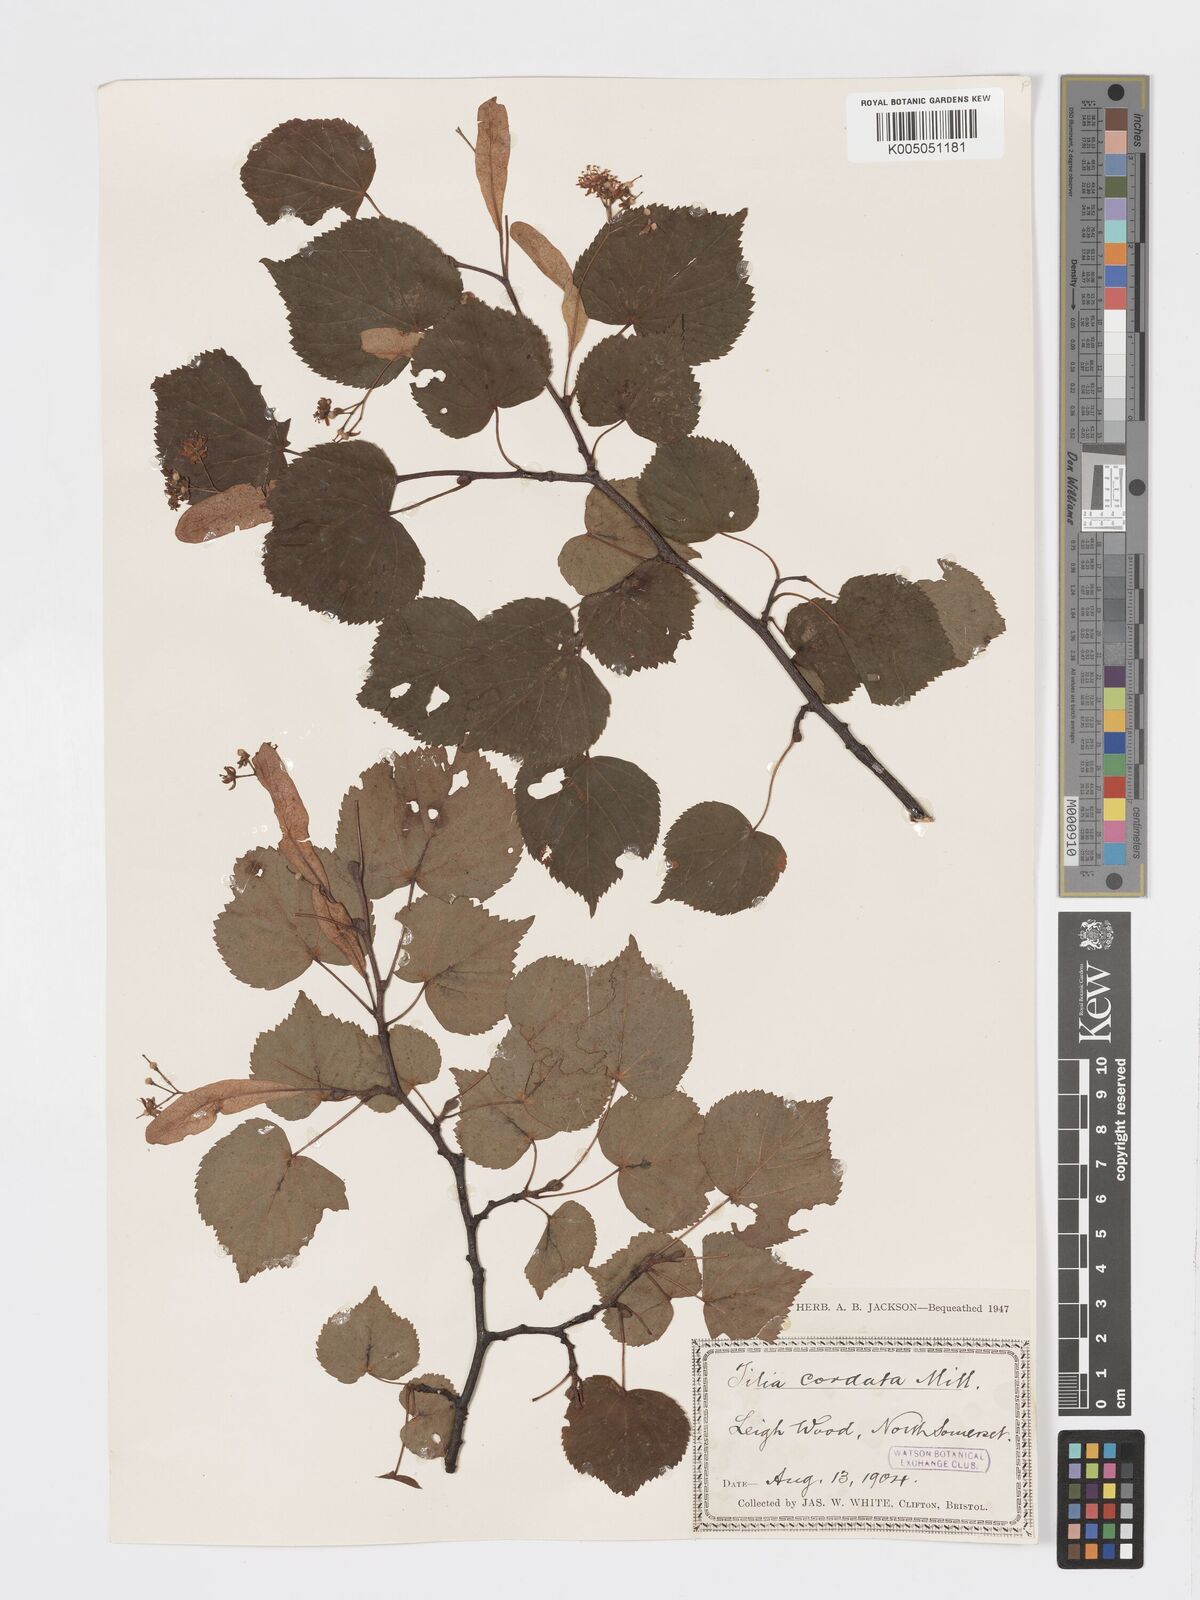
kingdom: Plantae
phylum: Tracheophyta
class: Magnoliopsida
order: Malvales
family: Malvaceae
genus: Tilia
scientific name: Tilia cordata
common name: Small-leaved lime
